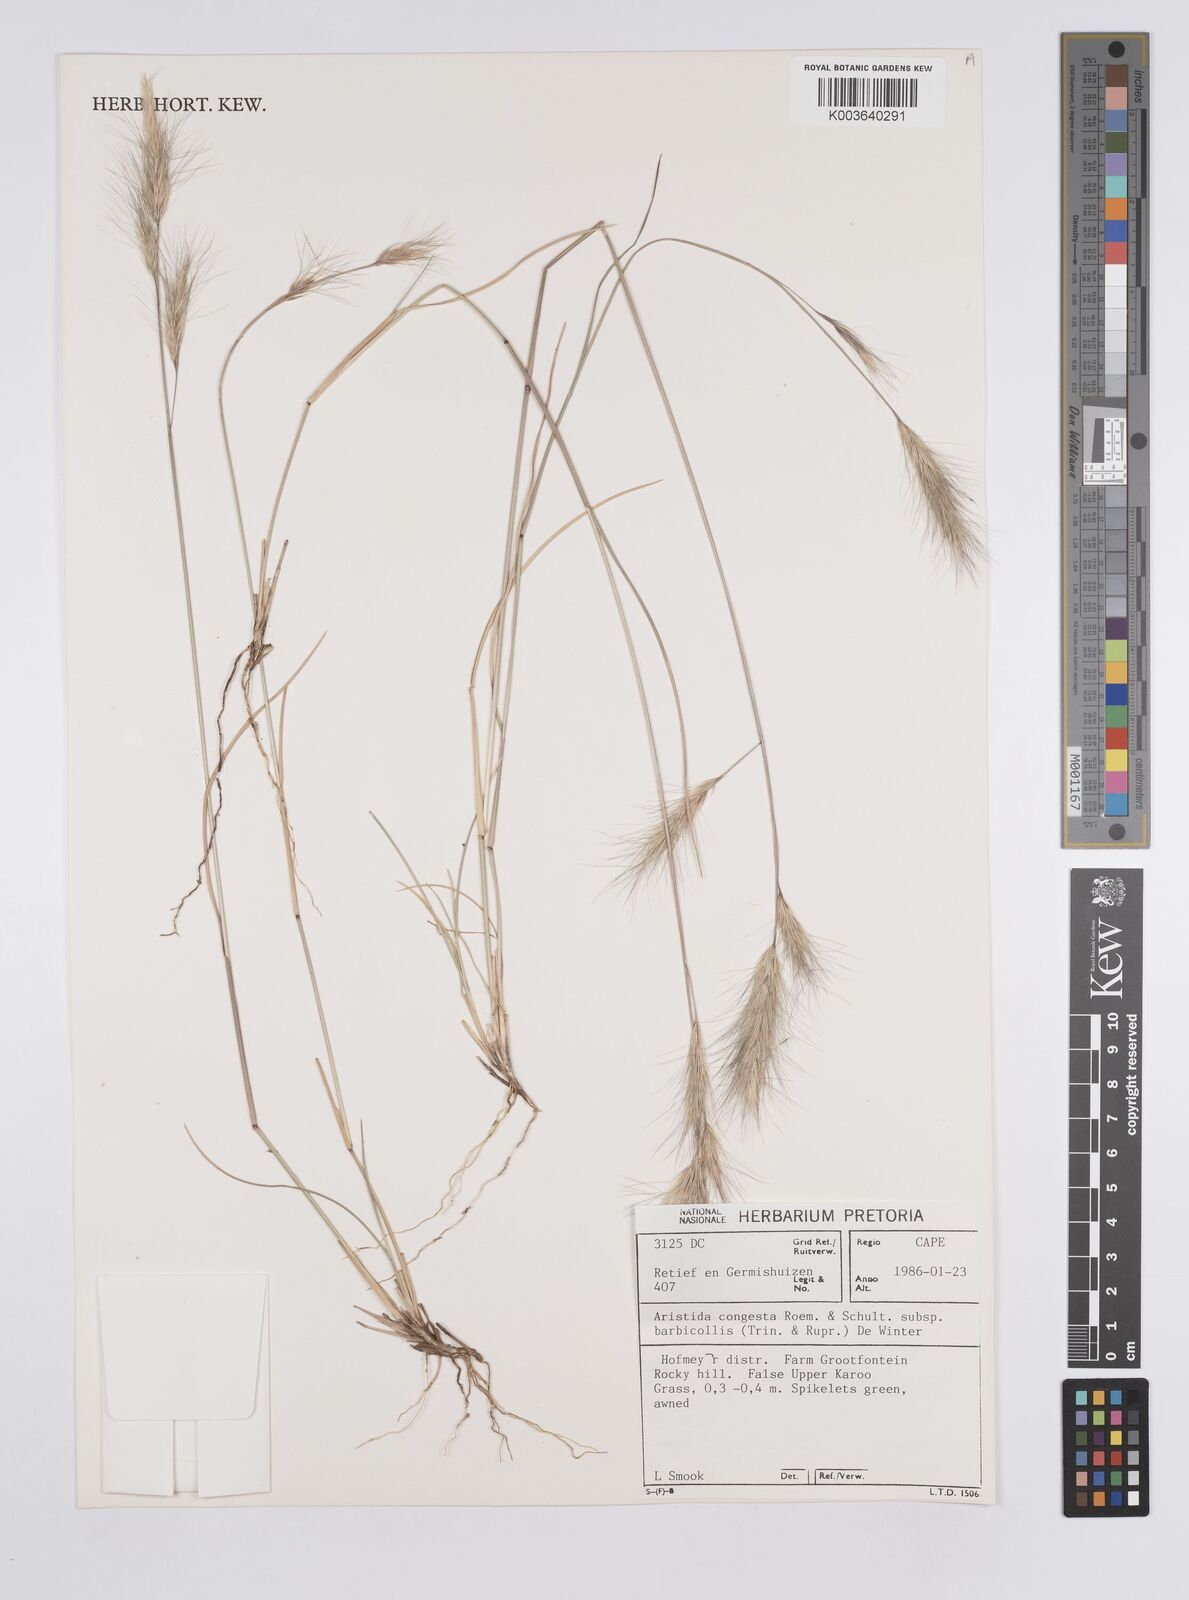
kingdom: Plantae
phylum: Tracheophyta
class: Liliopsida
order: Poales
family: Poaceae
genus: Aristida
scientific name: Aristida congesta
